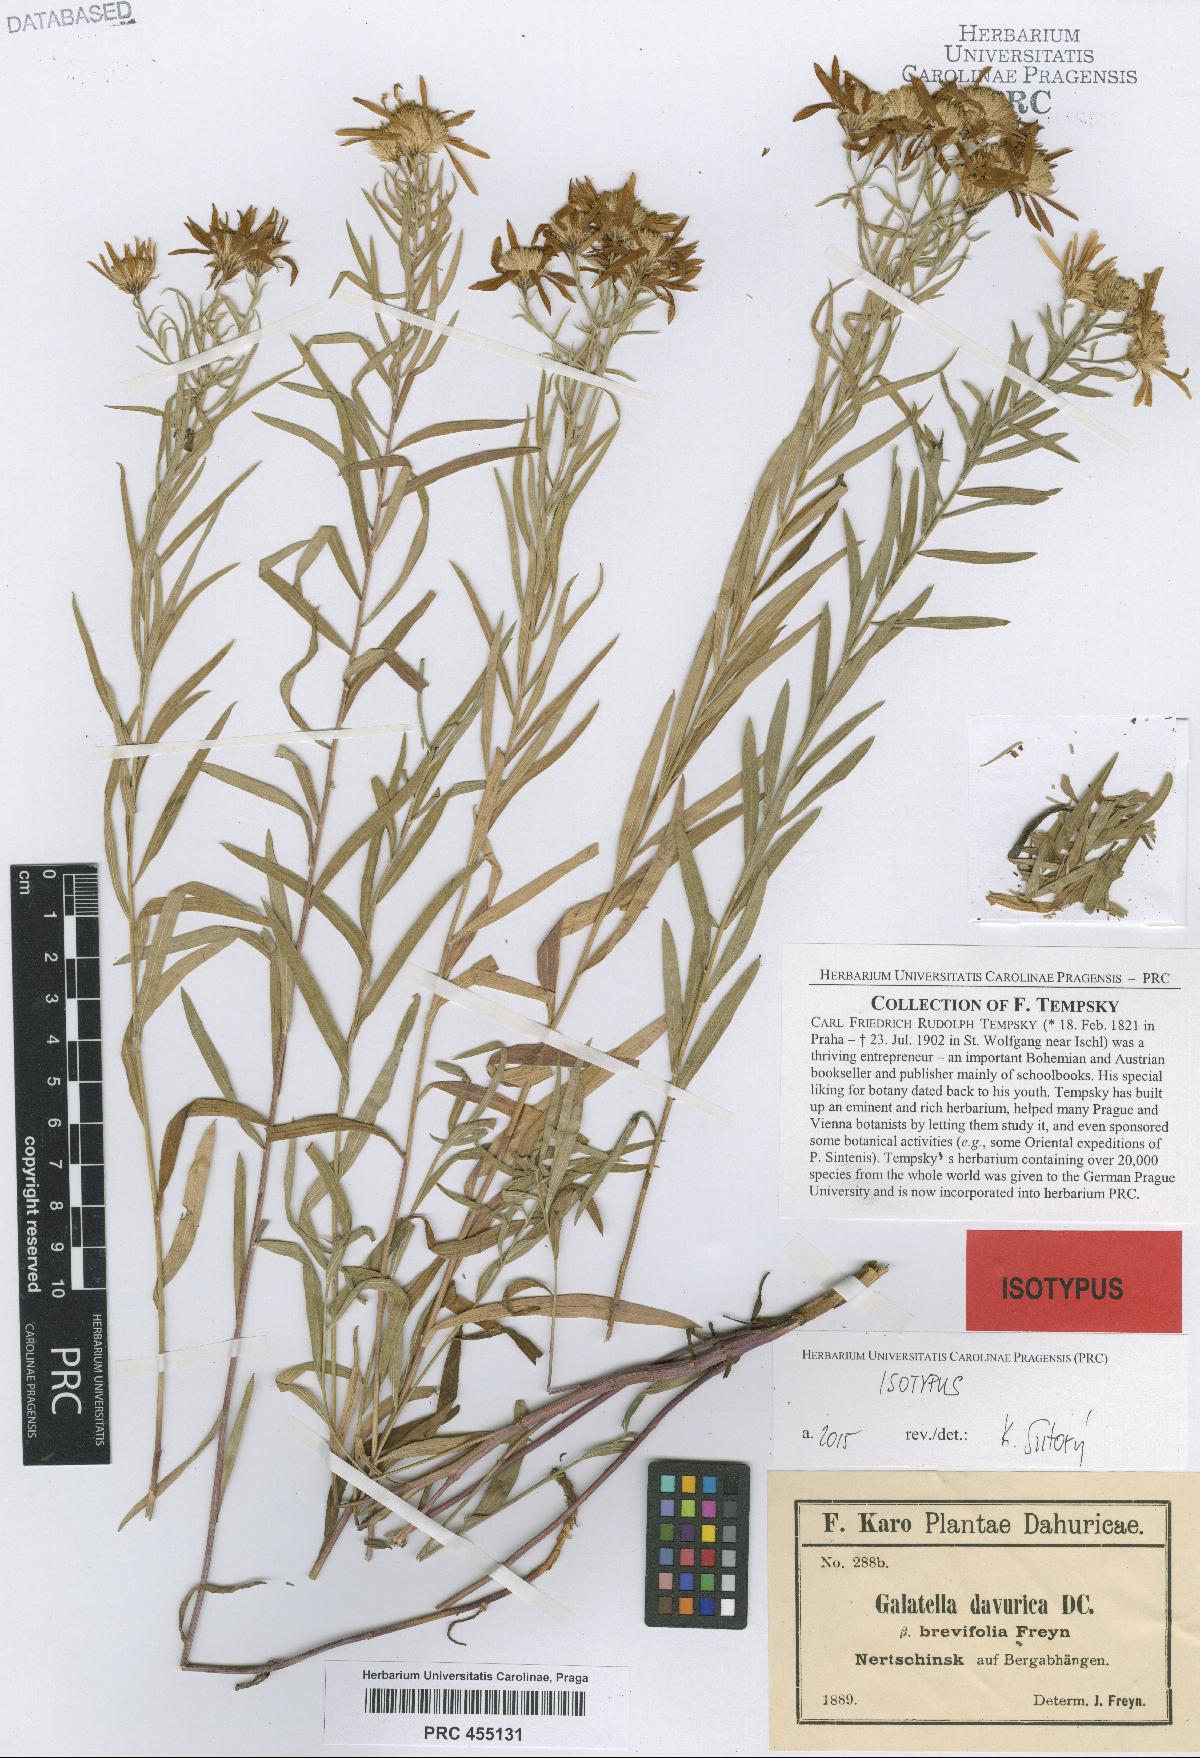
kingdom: Plantae
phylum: Tracheophyta
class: Magnoliopsida
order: Asterales
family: Asteraceae
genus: Galatella
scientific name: Galatella dahurica
